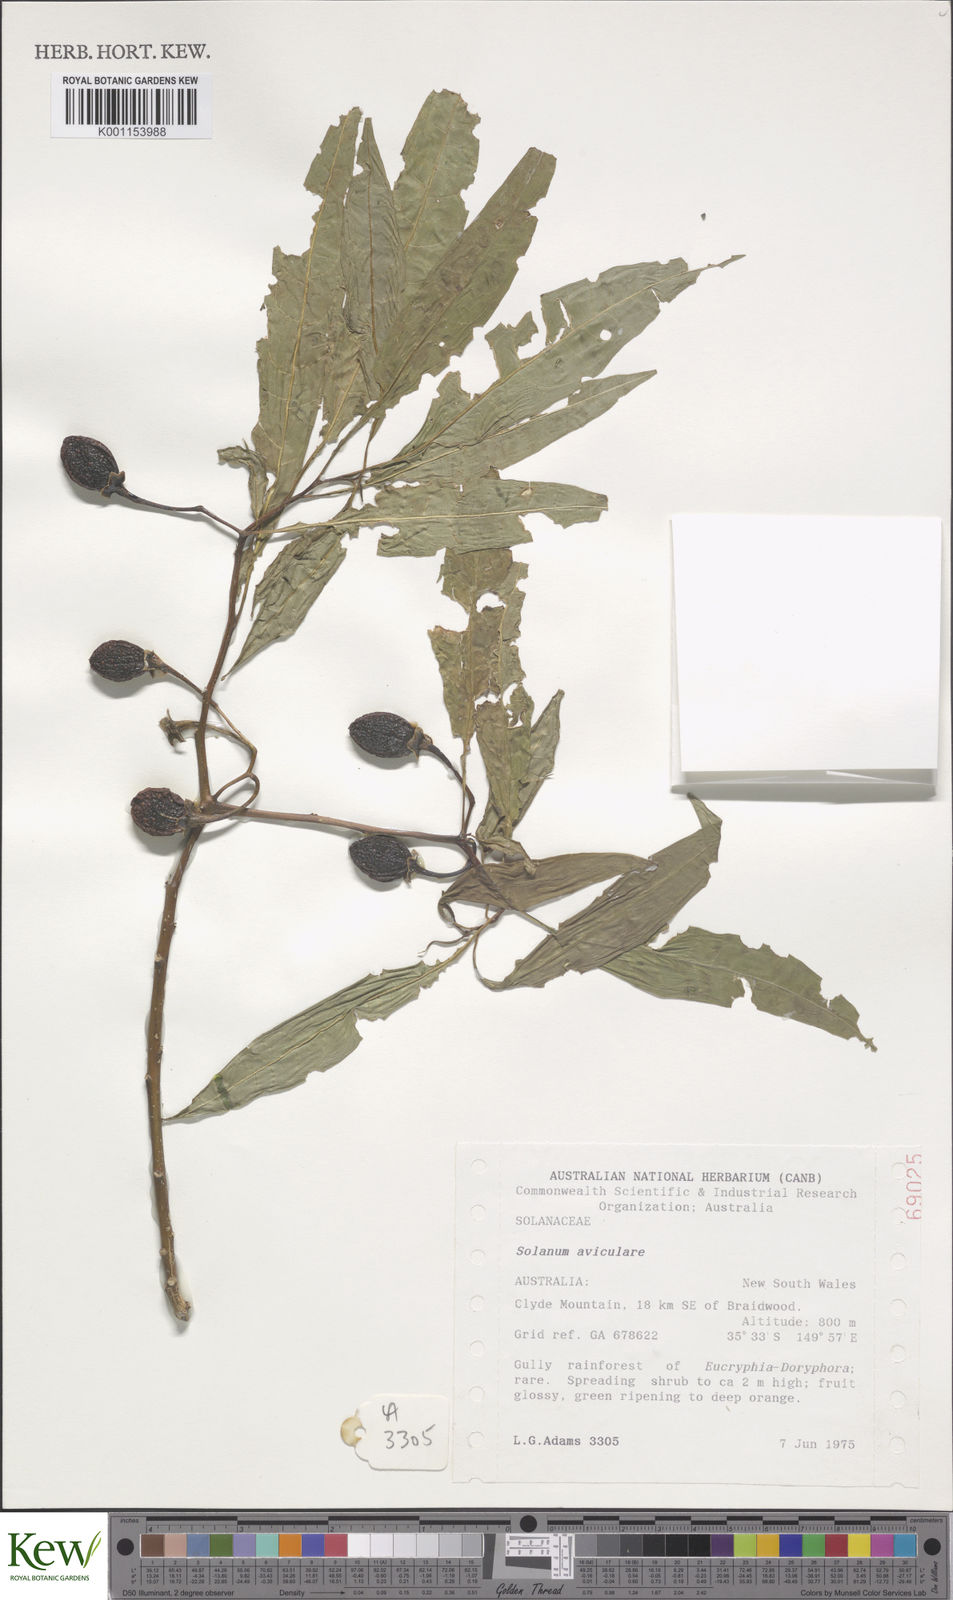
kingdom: Plantae
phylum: Tracheophyta
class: Magnoliopsida
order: Solanales
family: Solanaceae
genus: Solanum
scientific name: Solanum aviculare
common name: New zealand nightshade
